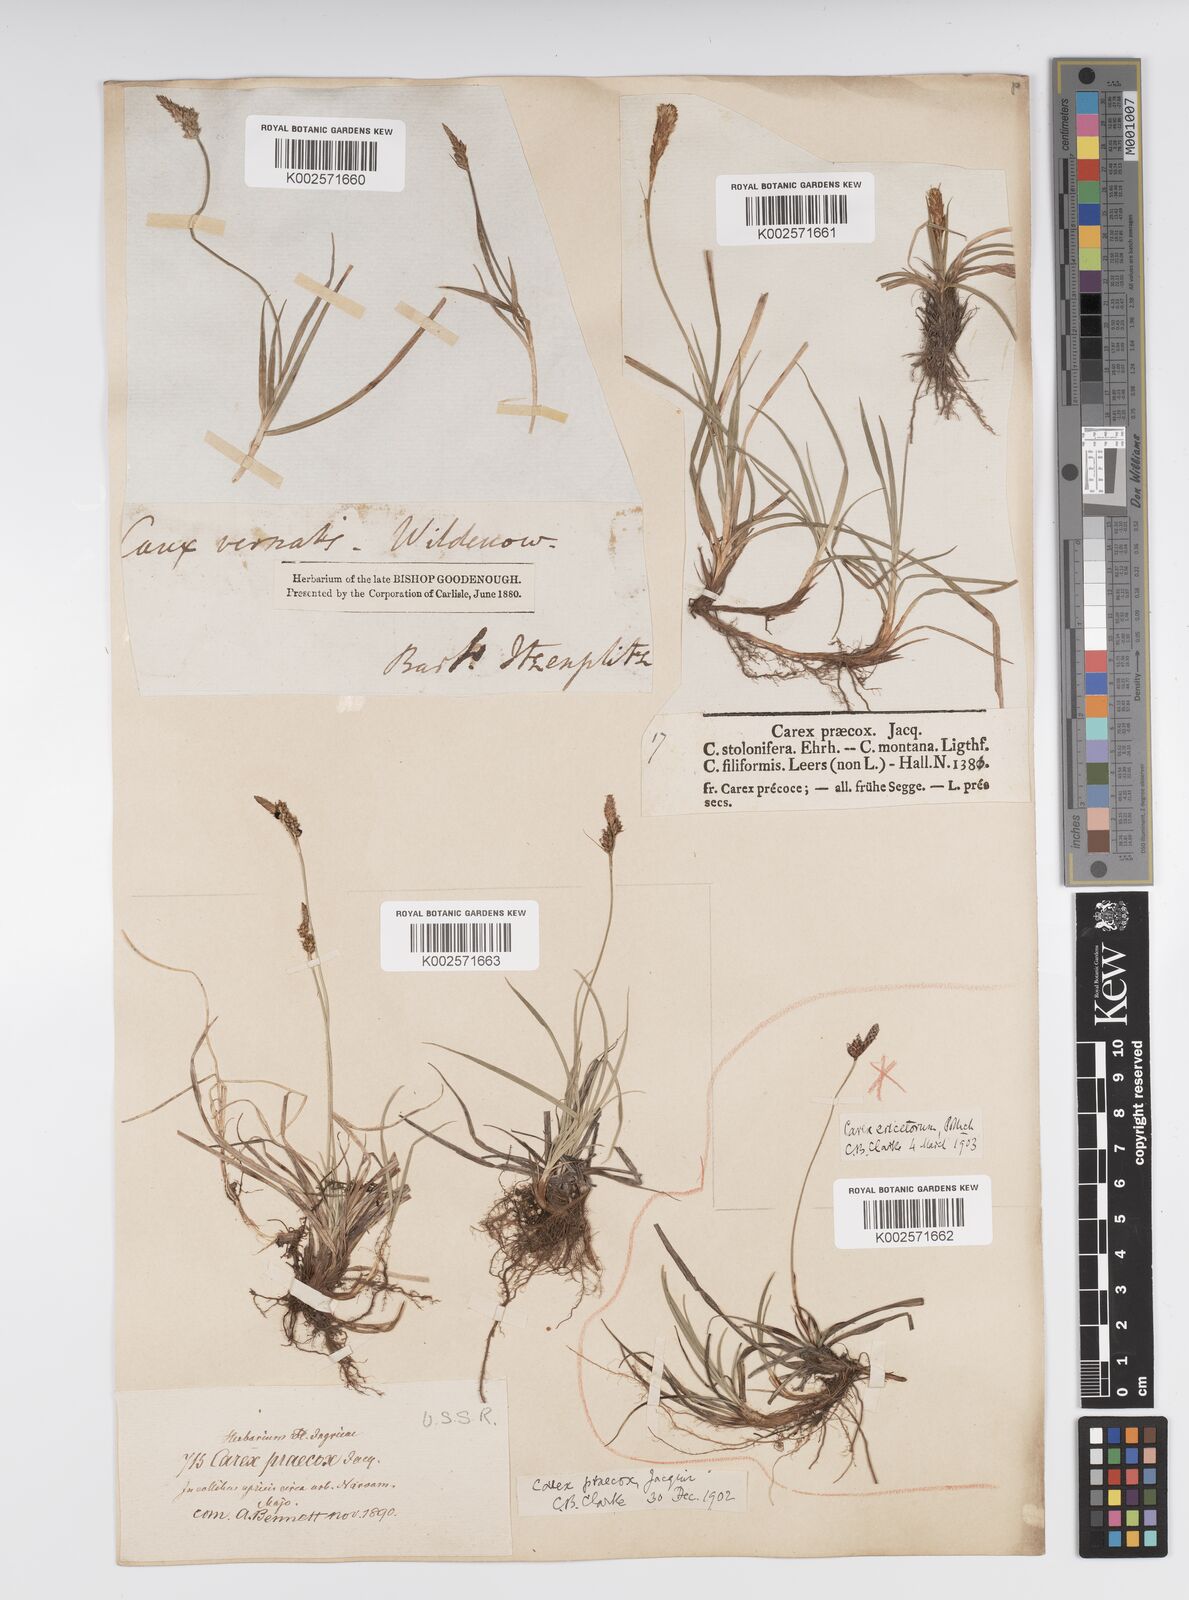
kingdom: Plantae
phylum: Tracheophyta
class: Liliopsida
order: Poales
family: Cyperaceae
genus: Carex
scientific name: Carex caryophyllea
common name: Spring sedge
